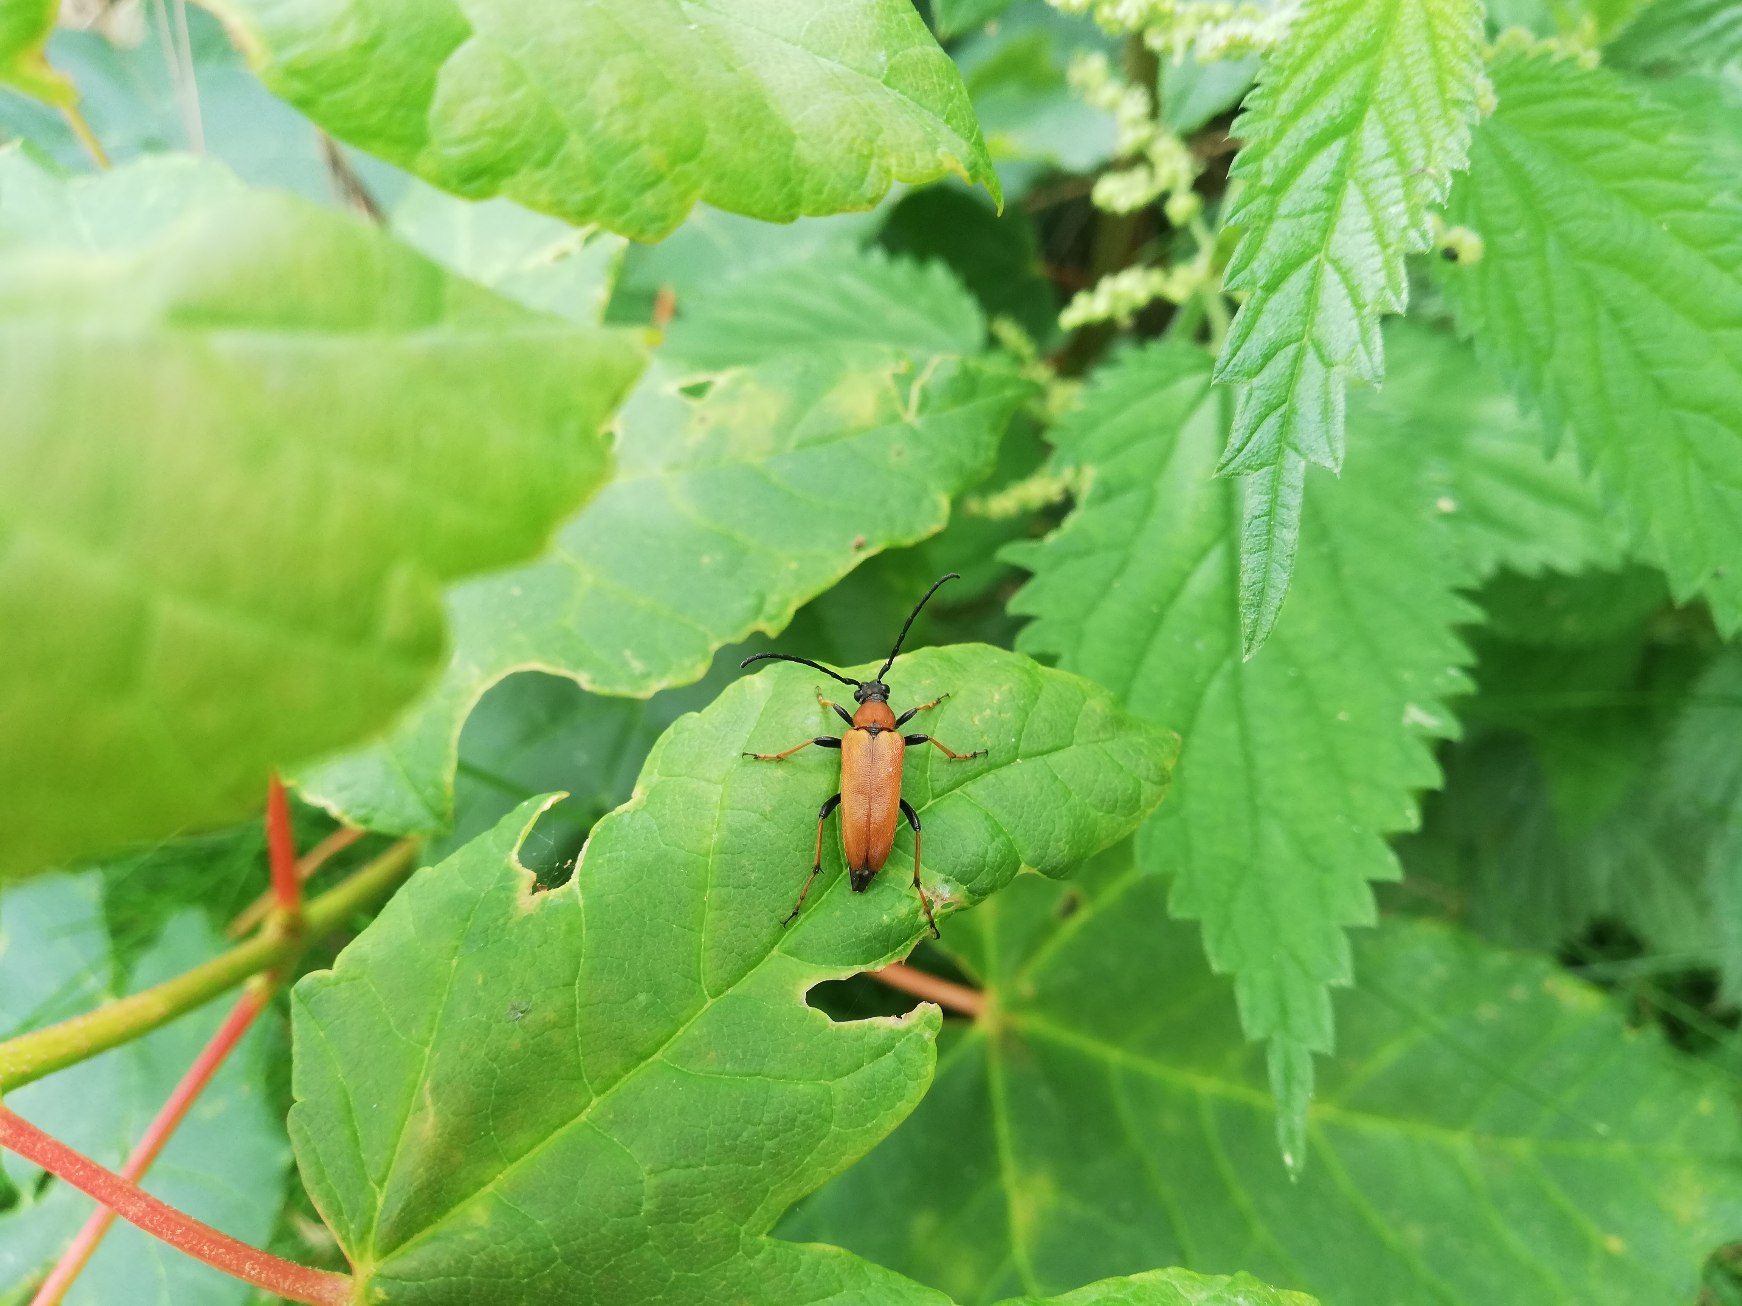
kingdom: Animalia
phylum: Arthropoda
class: Insecta
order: Coleoptera
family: Cerambycidae
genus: Stictoleptura
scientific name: Stictoleptura rubra
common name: Rød blomsterbuk
